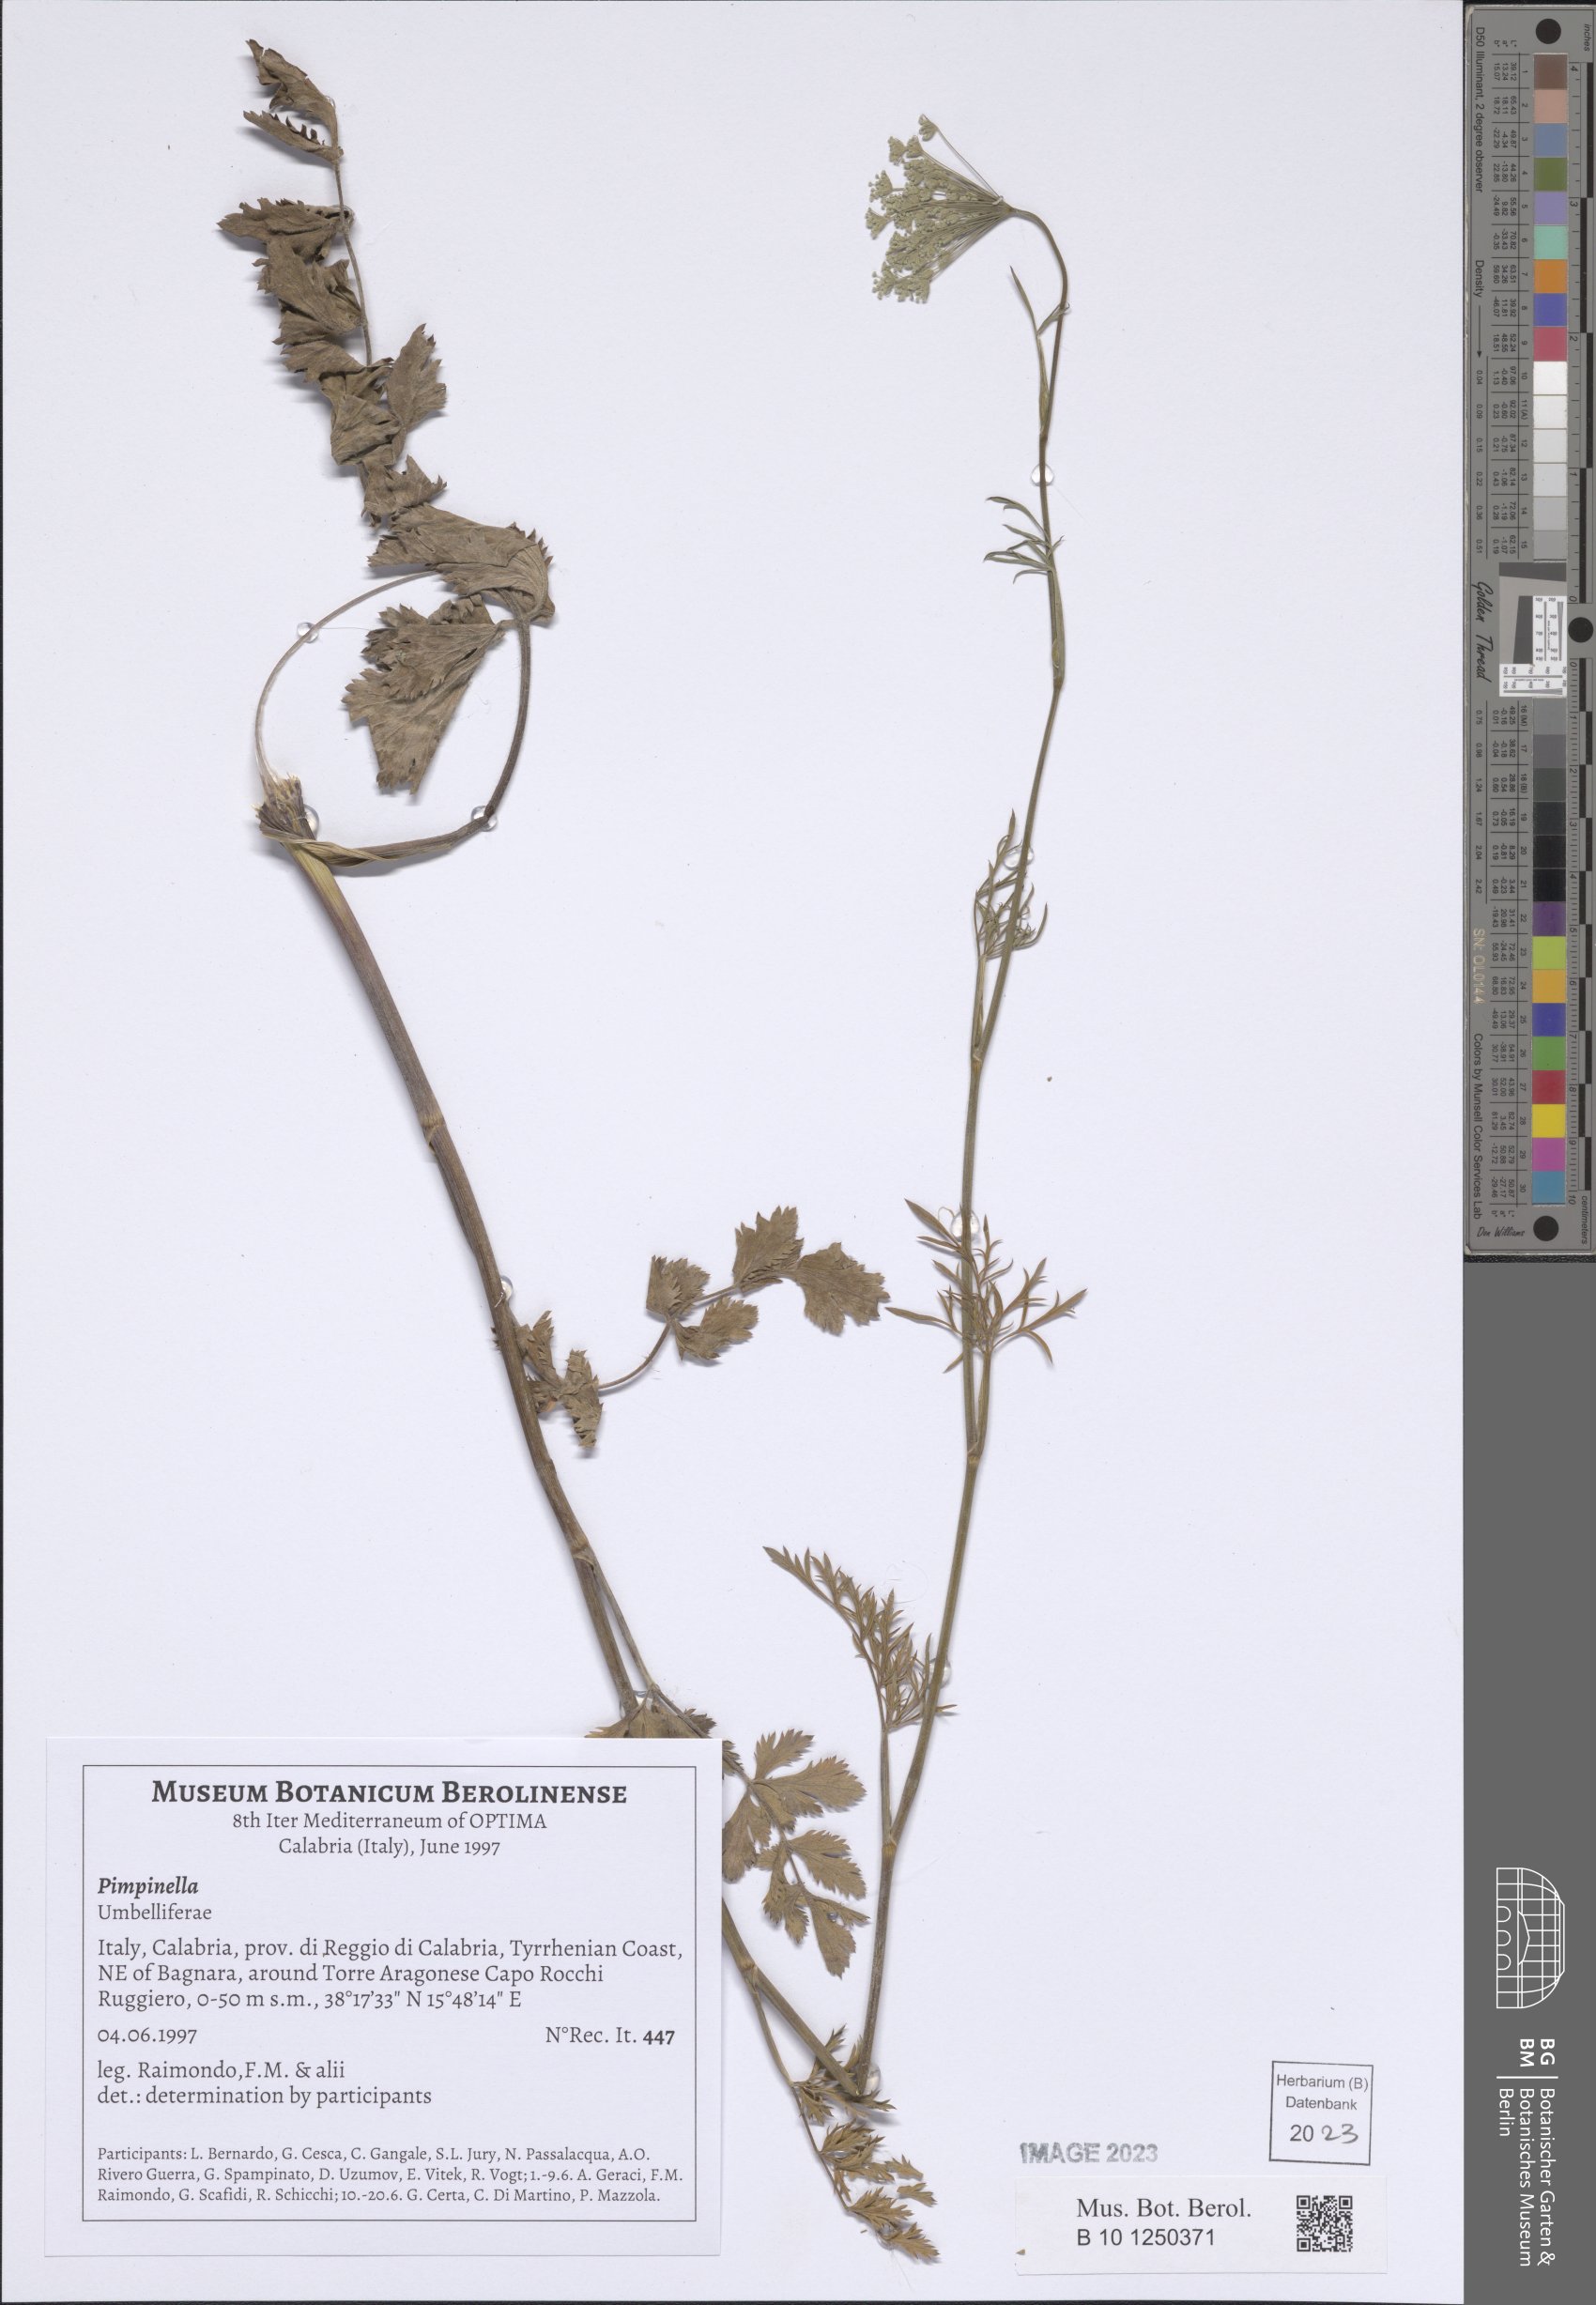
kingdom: Plantae
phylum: Tracheophyta
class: Magnoliopsida
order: Apiales
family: Apiaceae
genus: Pimpinella
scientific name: Pimpinella
